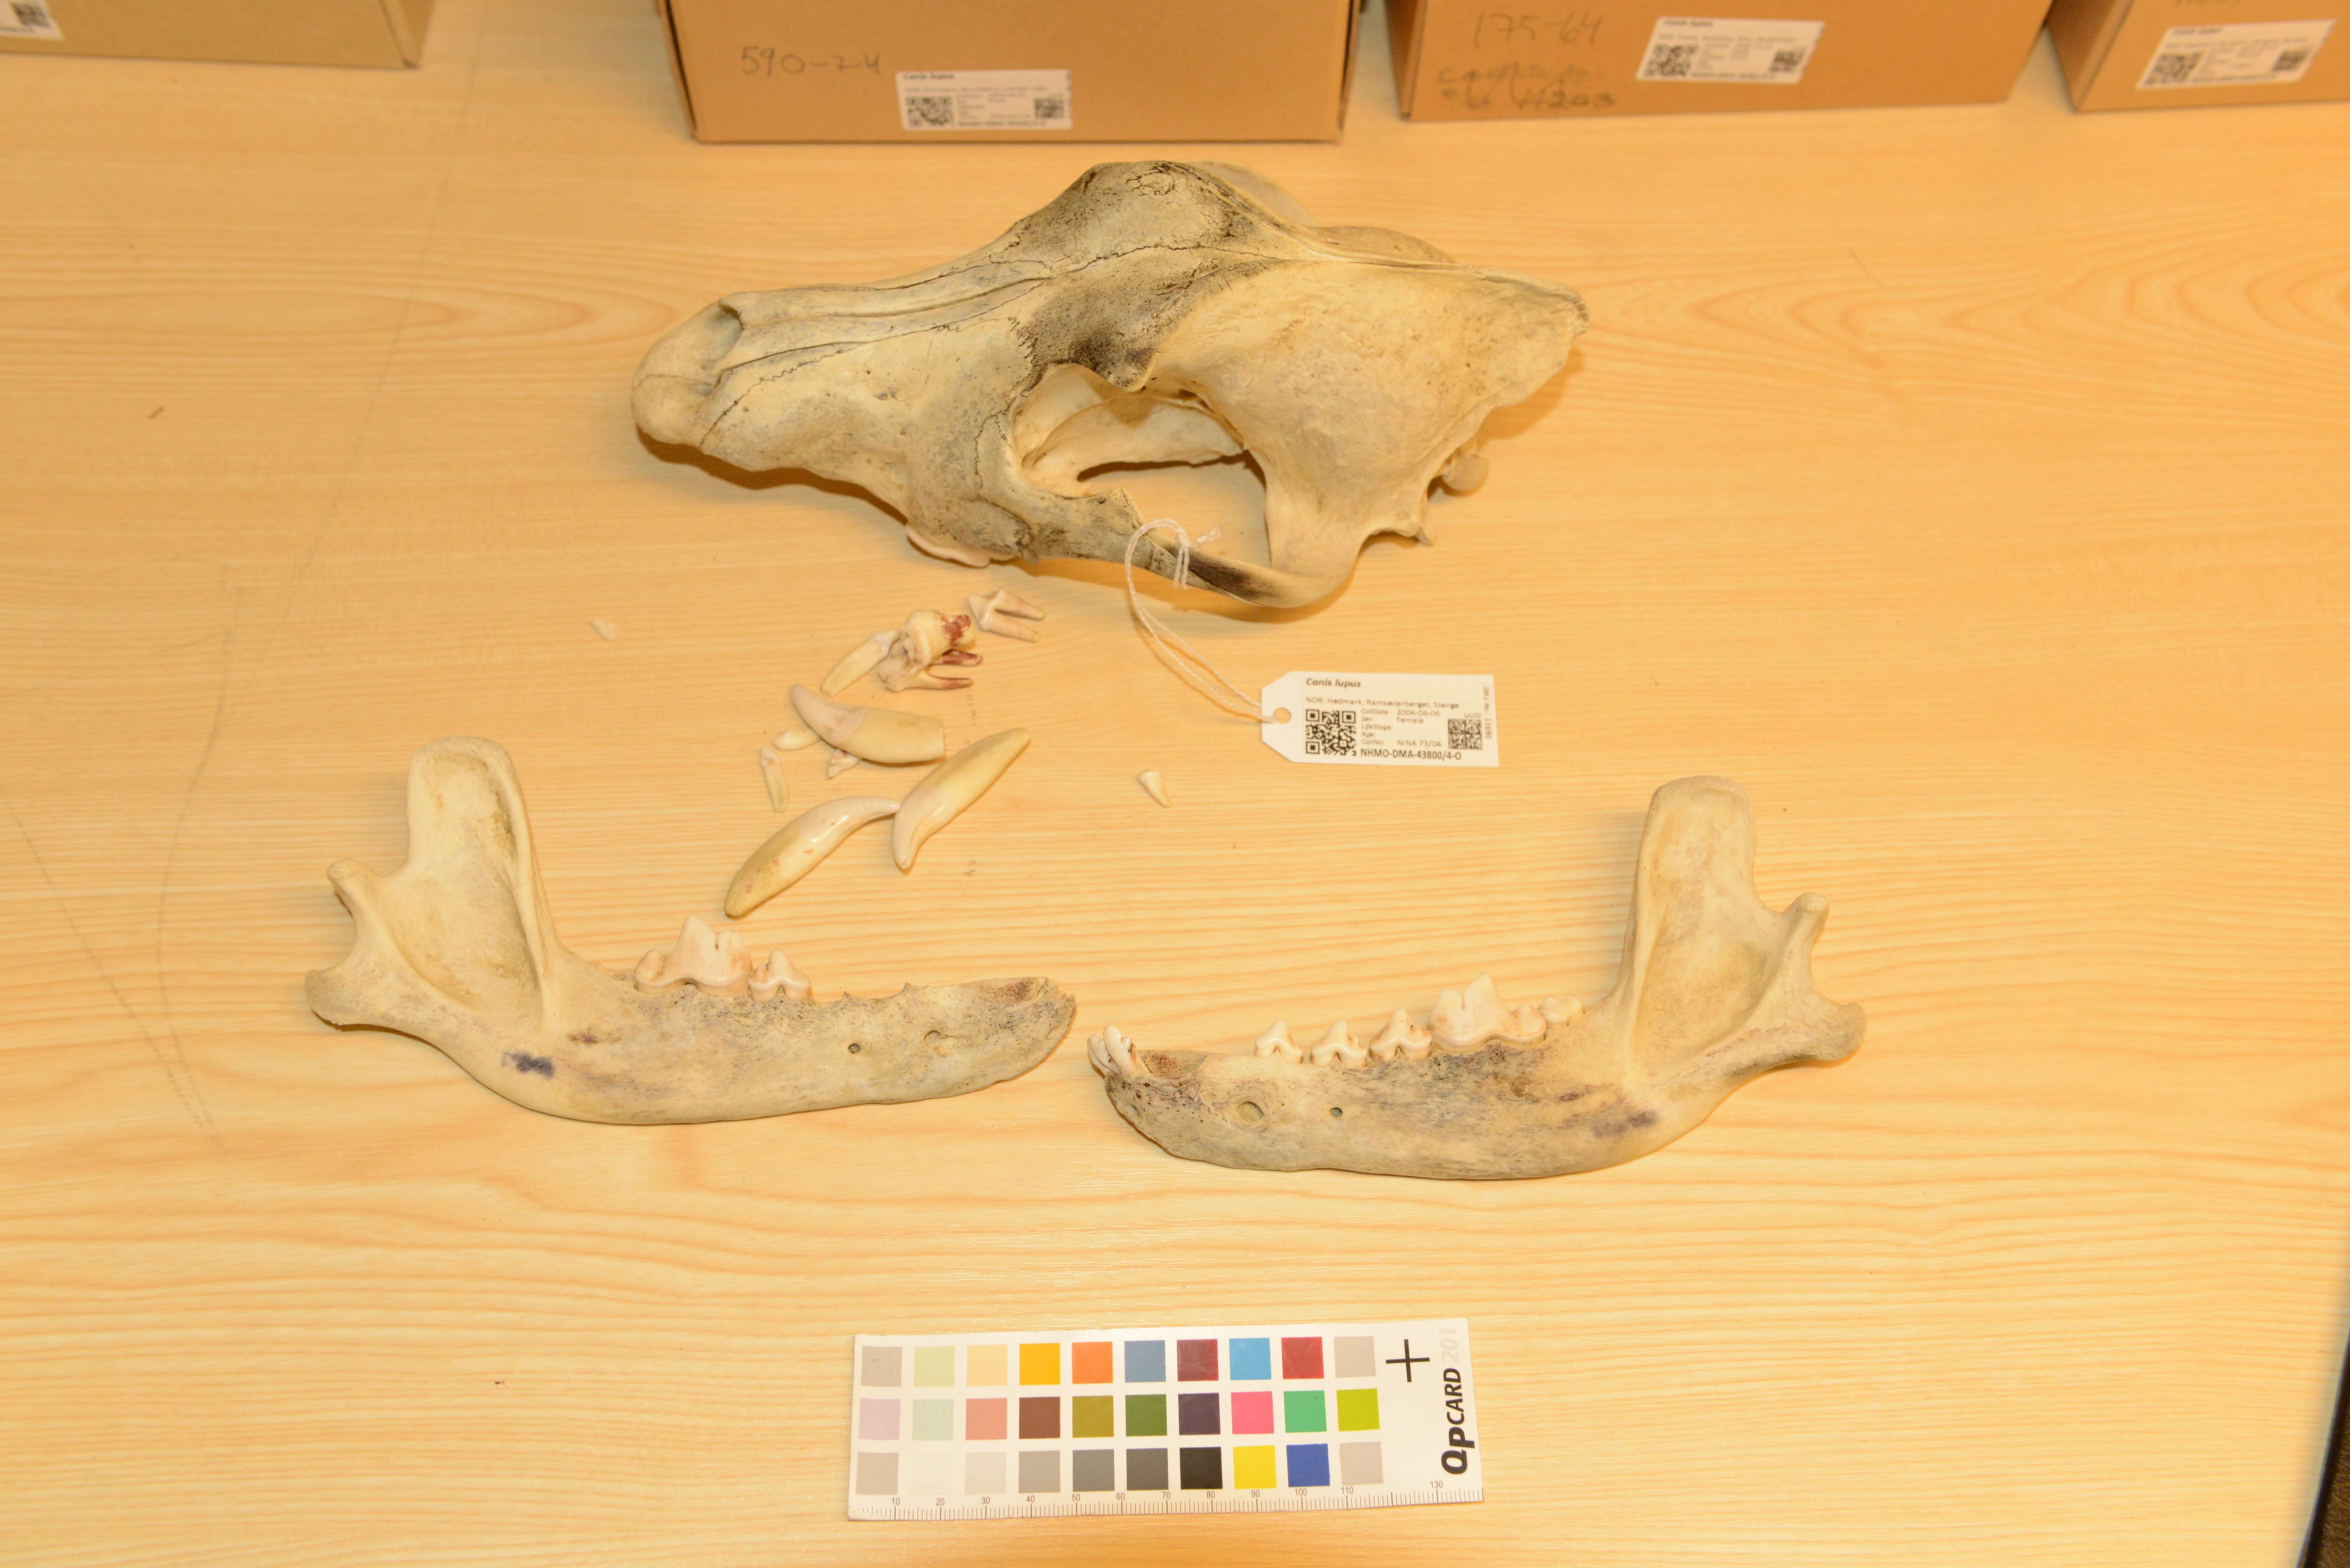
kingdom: Animalia
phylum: Chordata
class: Mammalia
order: Carnivora
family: Canidae
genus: Canis
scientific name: Canis lupus
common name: Gray wolf
